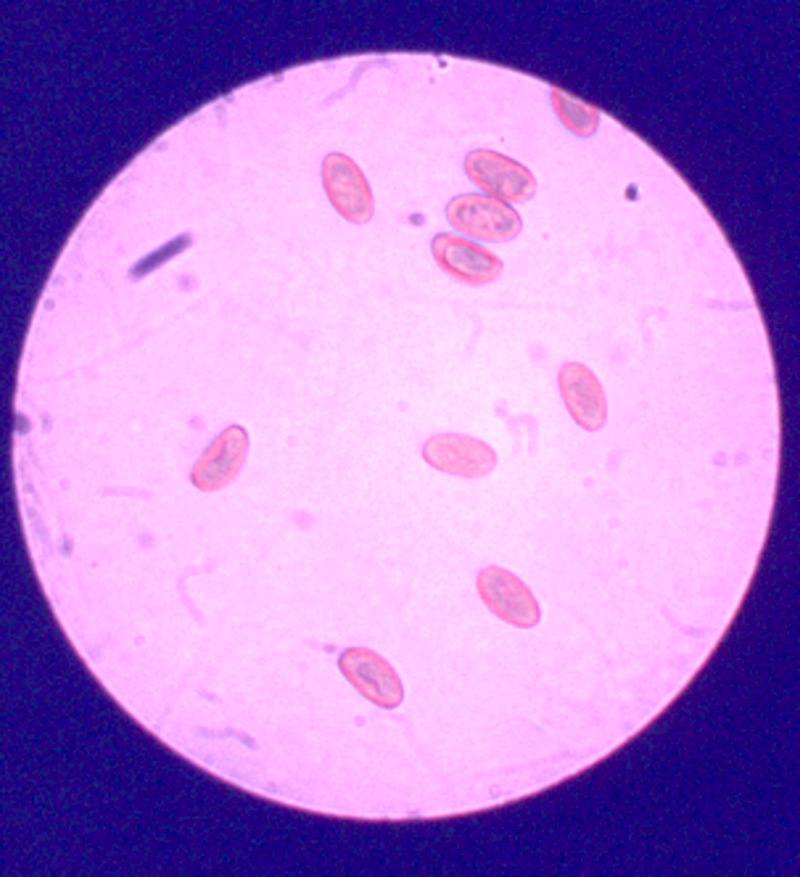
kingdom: Fungi
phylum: Basidiomycota
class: Agaricomycetes
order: Agaricales
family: Inocybaceae
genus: Inosperma
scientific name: Inosperma erubescens
